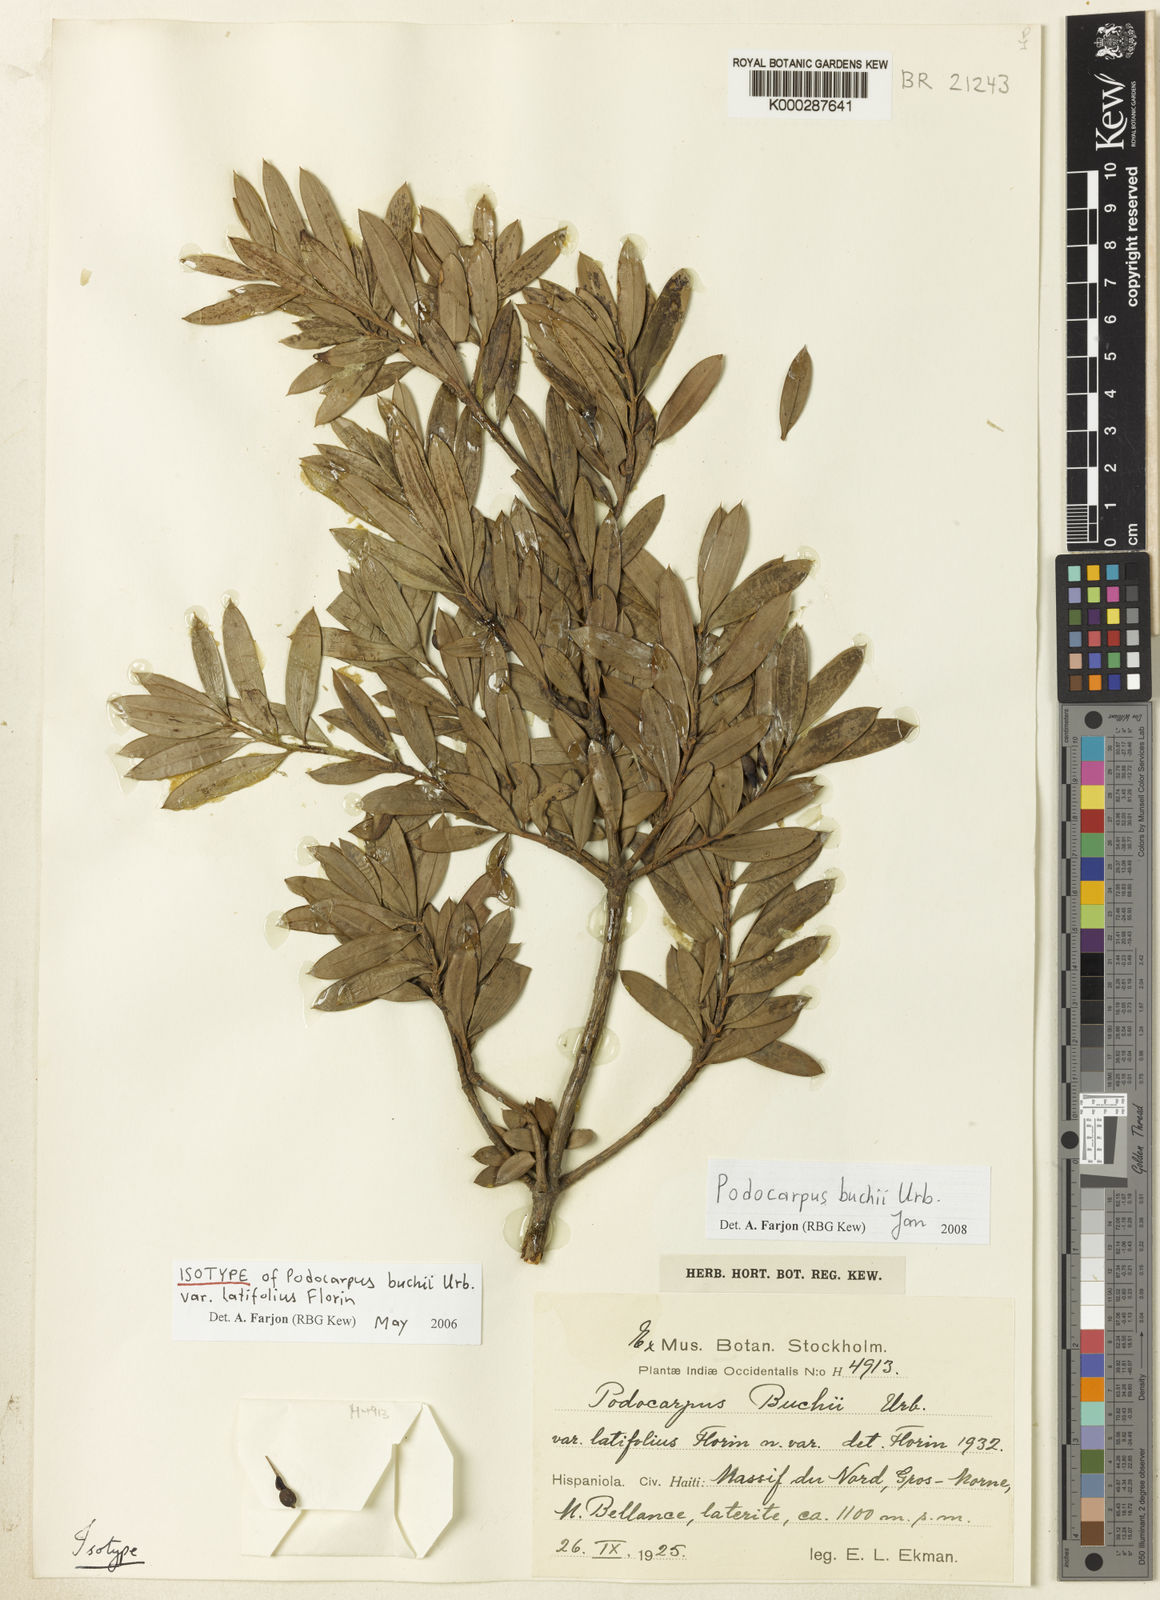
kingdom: Plantae
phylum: Tracheophyta
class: Pinopsida
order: Pinales
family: Podocarpaceae
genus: Podocarpus
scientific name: Podocarpus buchii
